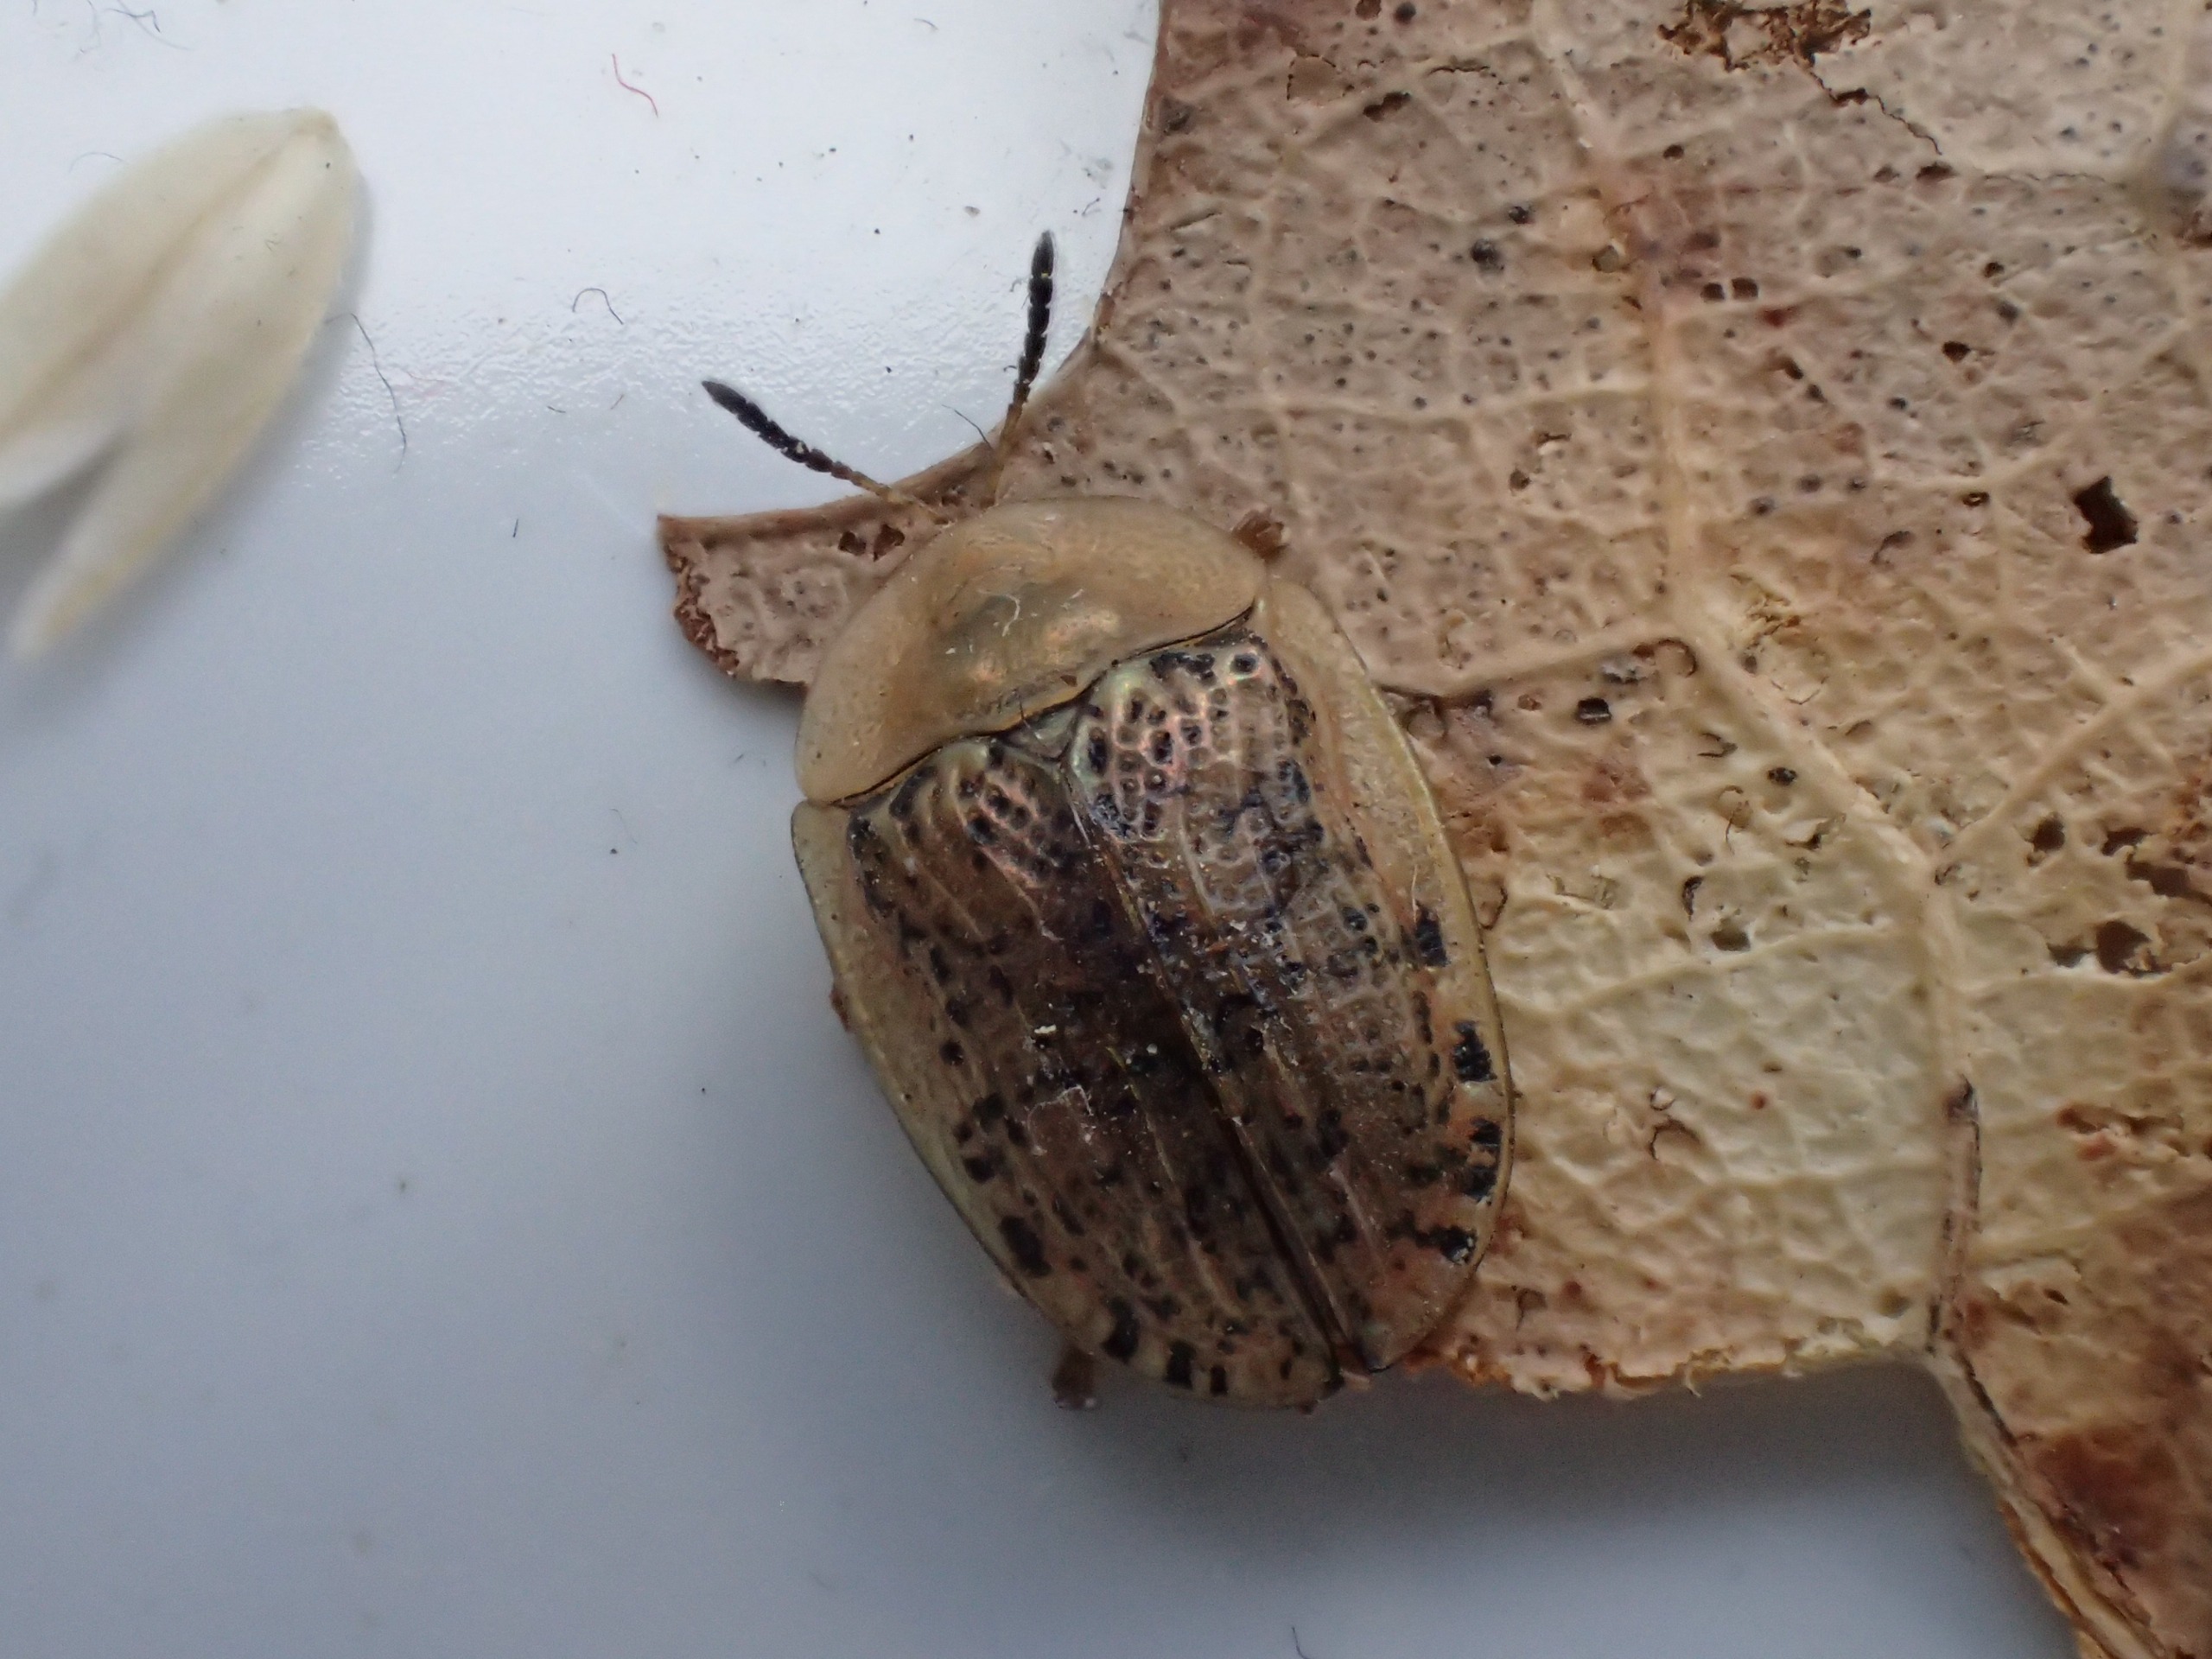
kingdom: Animalia
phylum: Arthropoda
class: Insecta
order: Coleoptera
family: Chrysomelidae
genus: Cassida
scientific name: Cassida nebulosa
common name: Plettet skjoldbille
